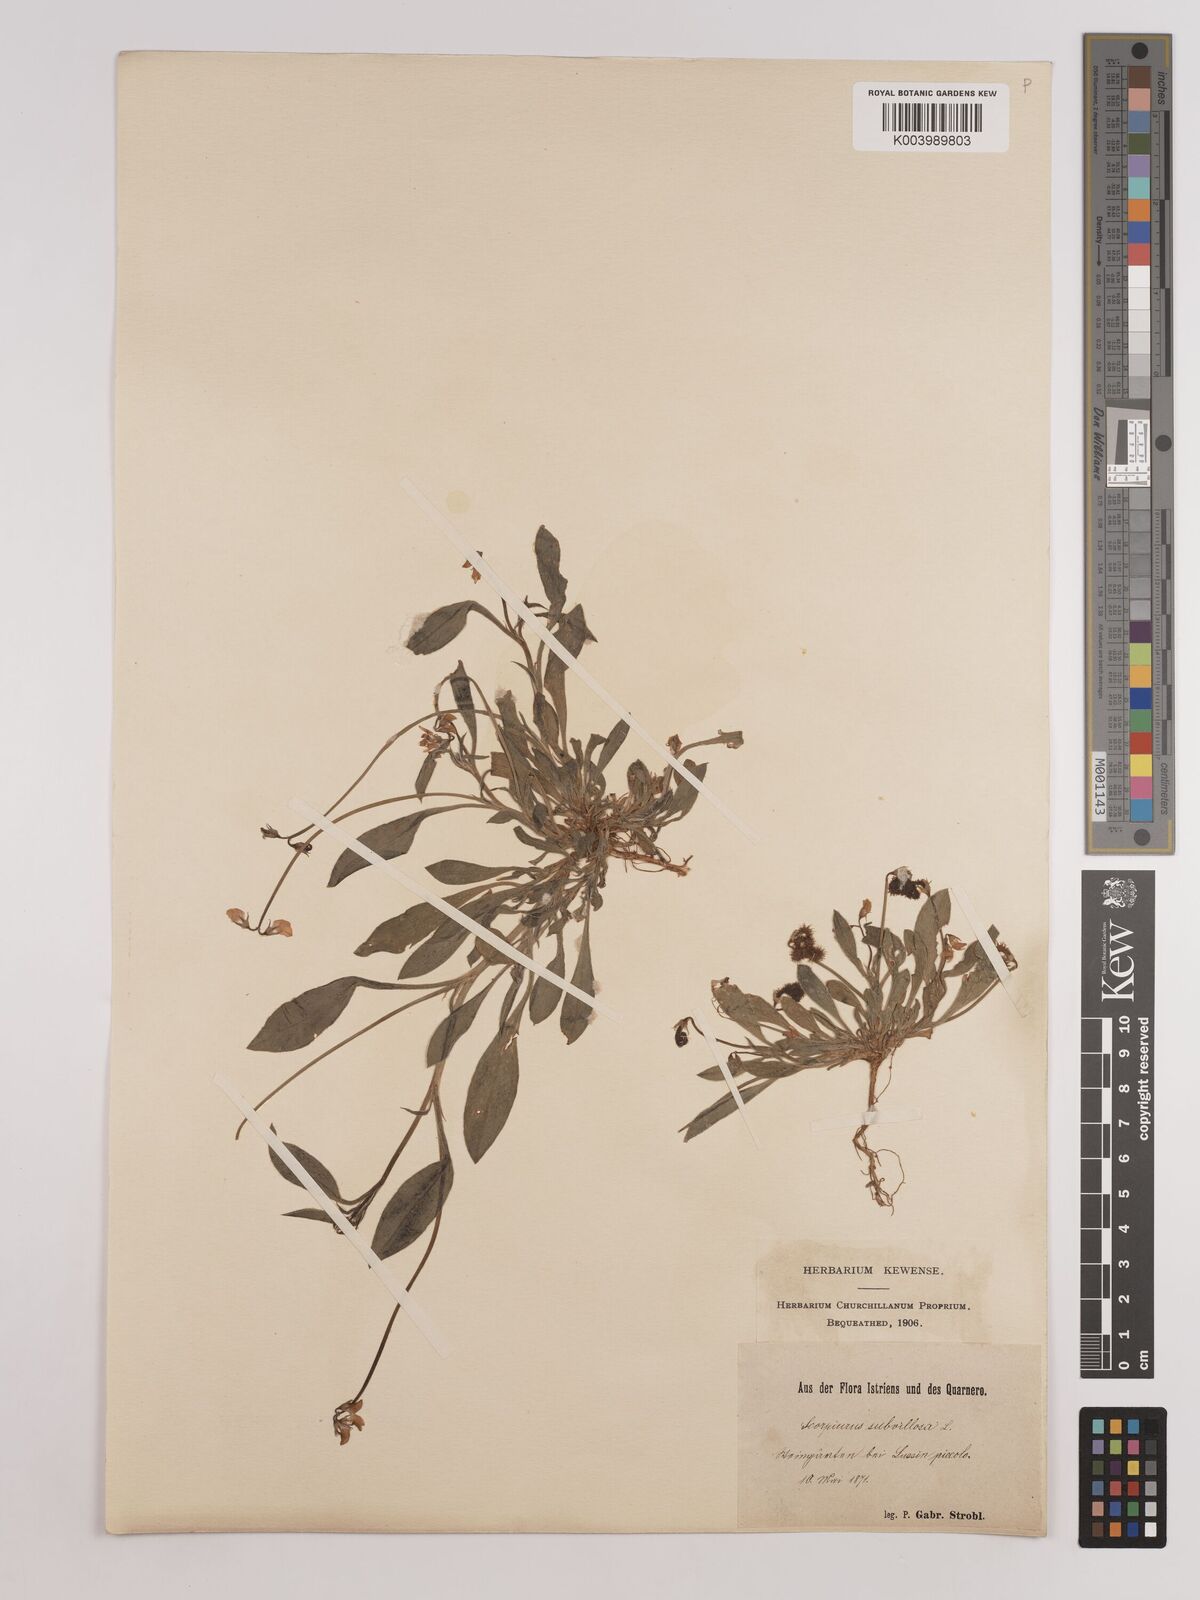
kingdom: Plantae
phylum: Tracheophyta
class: Magnoliopsida
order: Fabales
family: Fabaceae
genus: Scorpiurus
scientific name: Scorpiurus muricatus
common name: Caterpillar-plant
